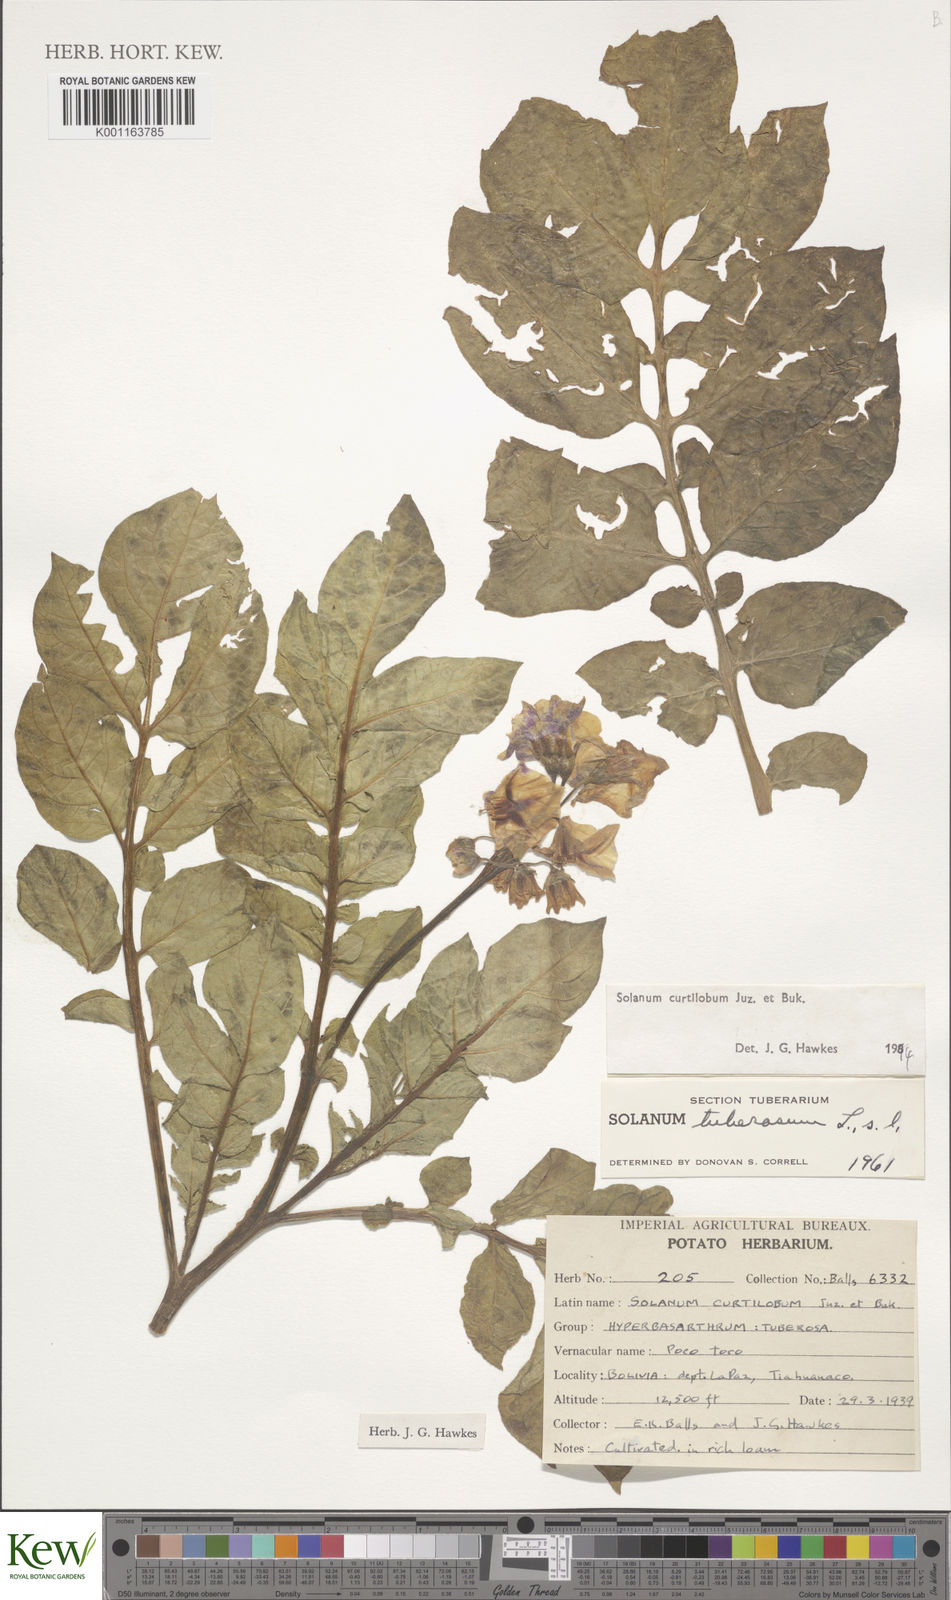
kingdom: Plantae
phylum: Tracheophyta
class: Magnoliopsida
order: Solanales
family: Solanaceae
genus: Solanum
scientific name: Solanum curtilobum
